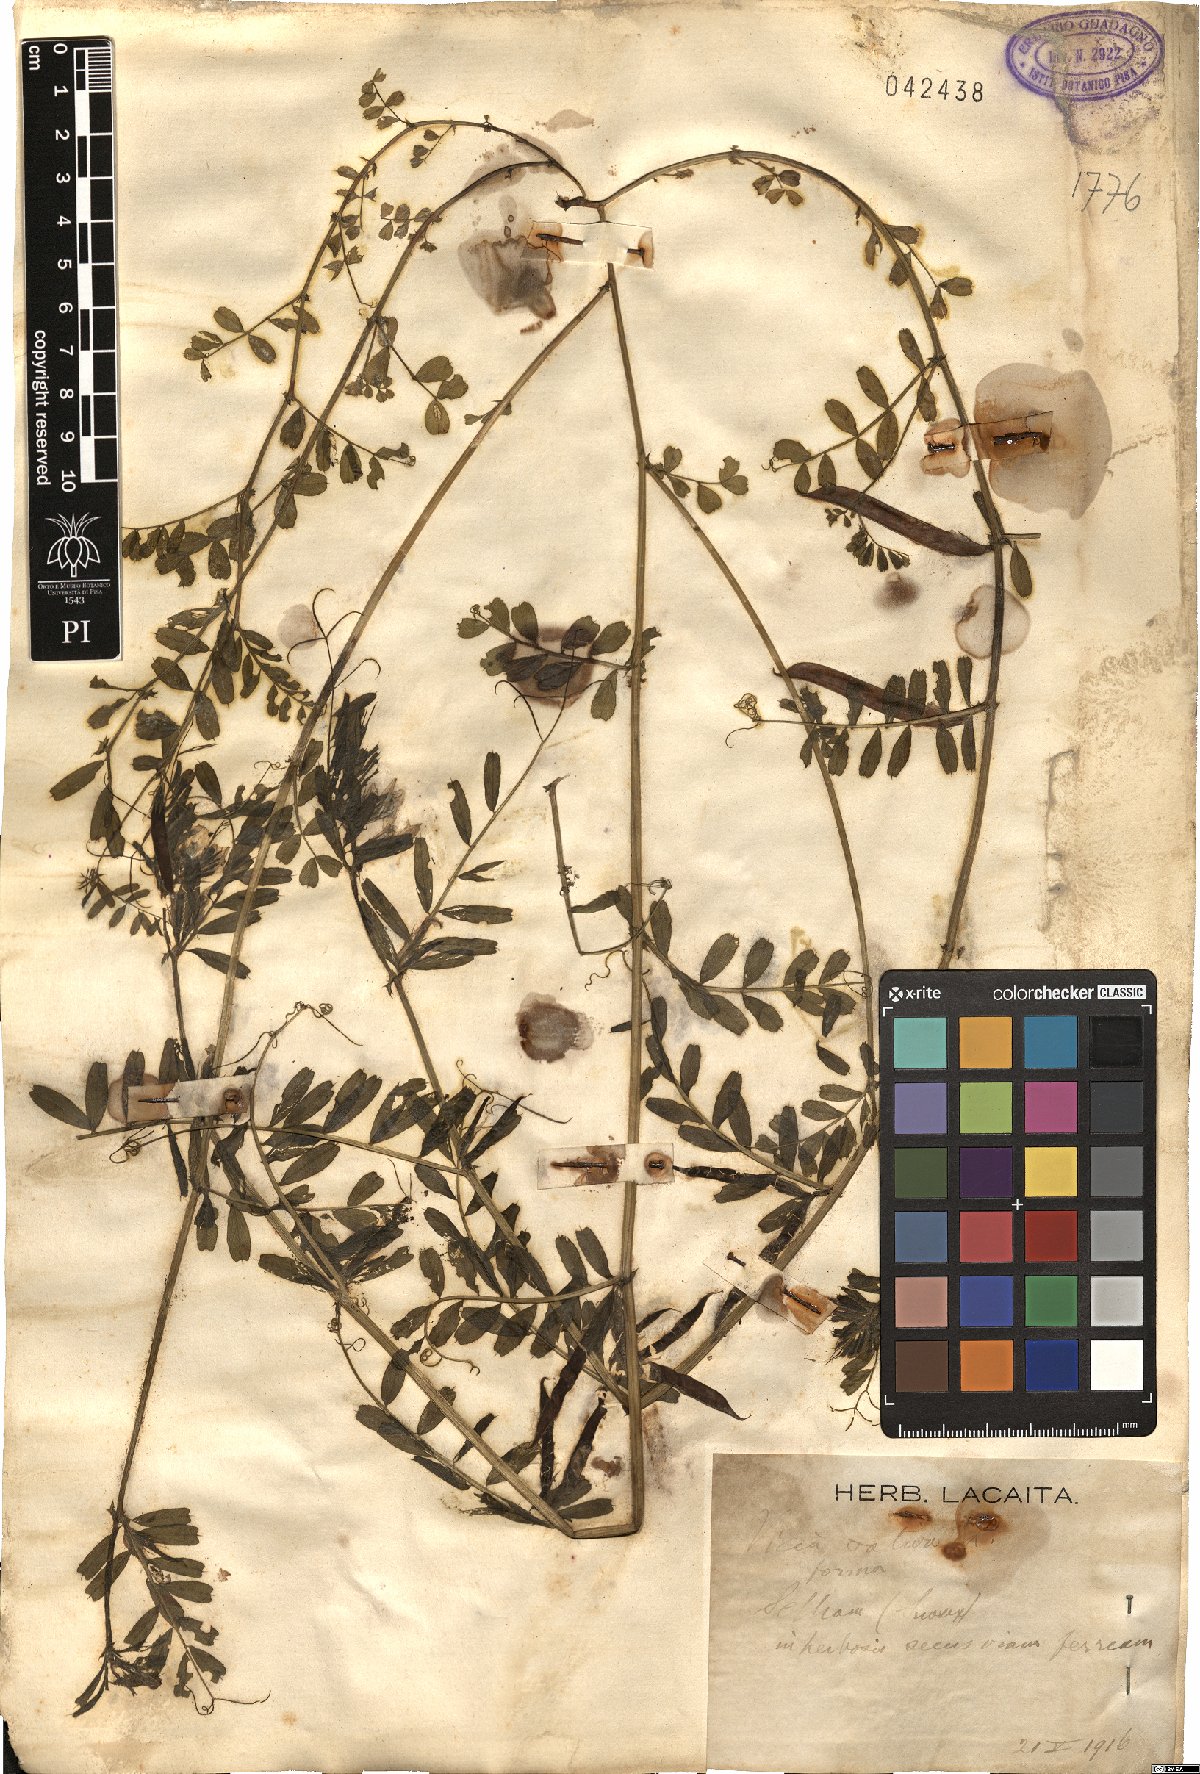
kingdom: Plantae
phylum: Tracheophyta
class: Magnoliopsida
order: Fabales
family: Fabaceae
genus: Vicia
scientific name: Vicia sativa
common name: Garden vetch
